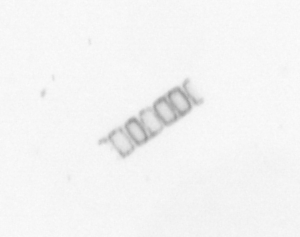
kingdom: Chromista
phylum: Ochrophyta
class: Bacillariophyceae
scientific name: Bacillariophyceae
